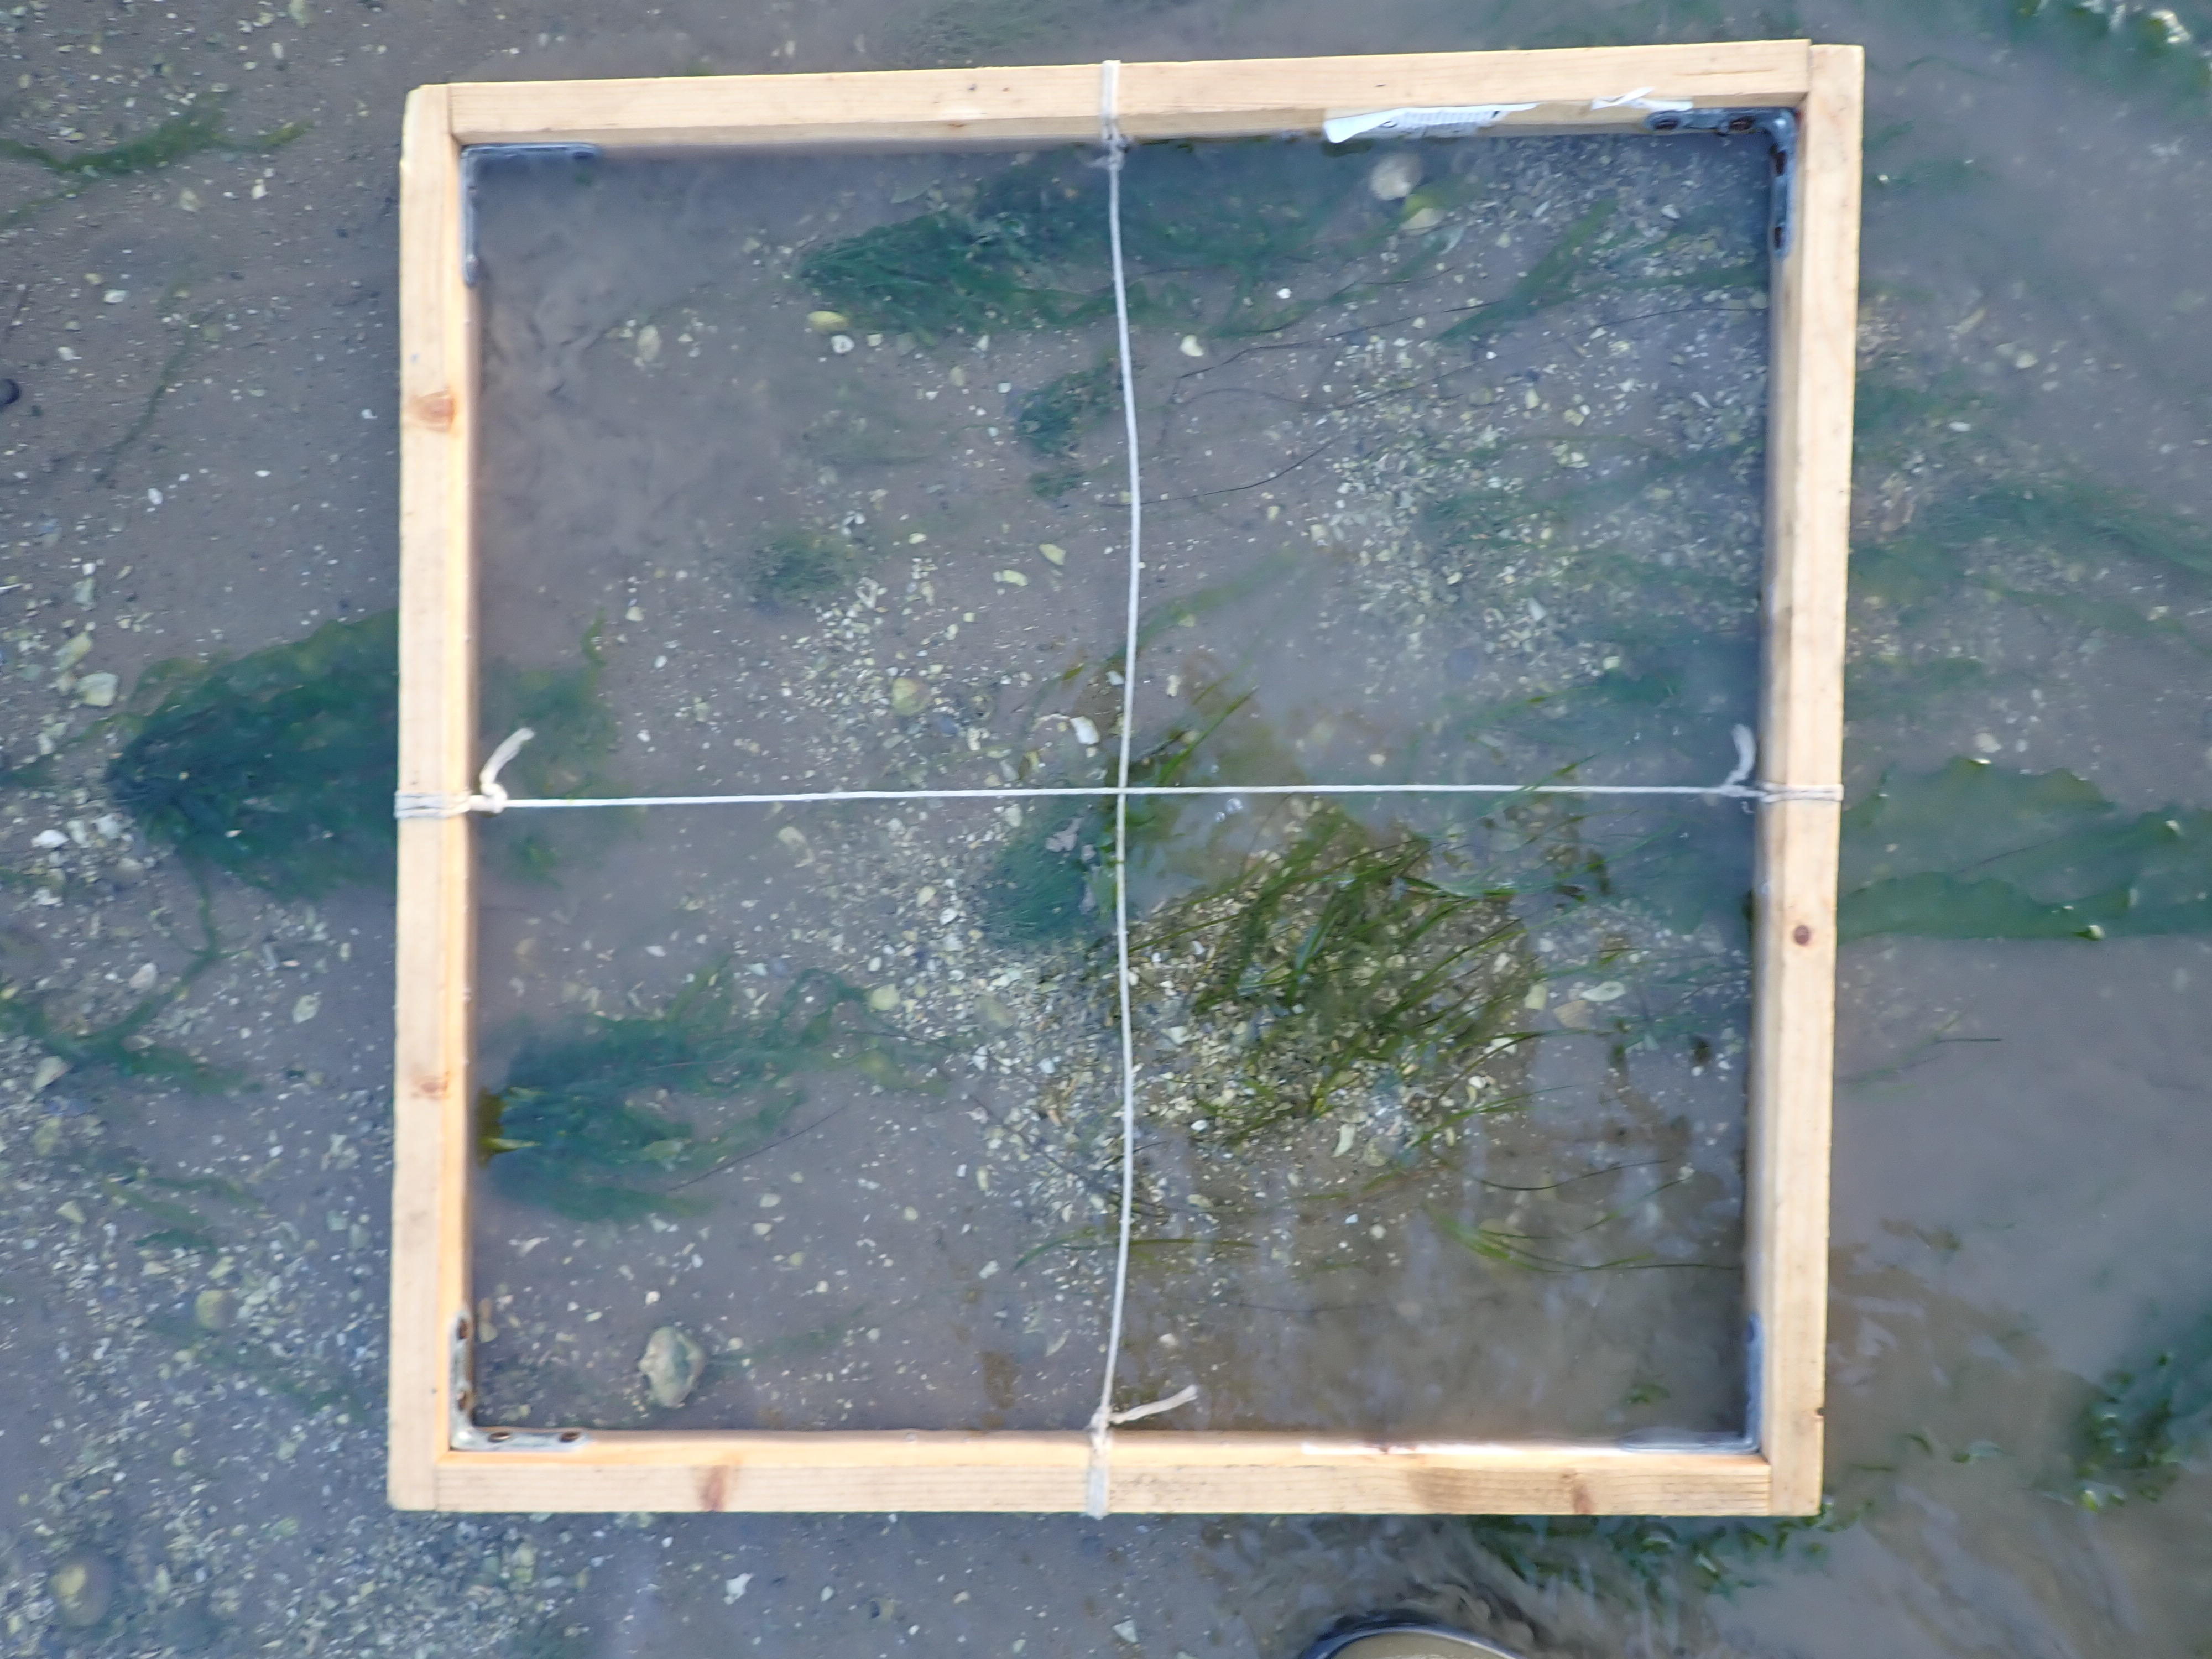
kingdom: Chromista
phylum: Ochrophyta
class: Phaeophyceae
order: Fucales
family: Fucaceae
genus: Fucus
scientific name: Fucus vesiculosus
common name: Bladder wrack
